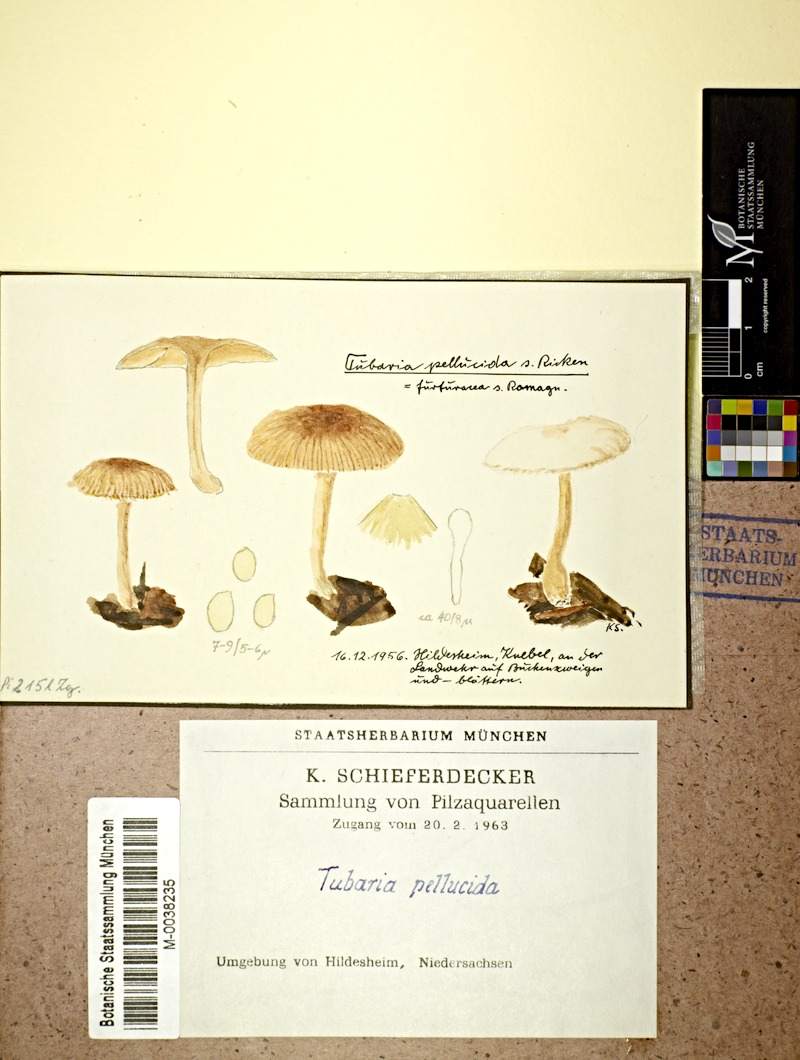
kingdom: Plantae
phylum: Tracheophyta
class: Magnoliopsida
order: Fagales
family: Fagaceae
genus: Fagus
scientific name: Fagus sylvatica
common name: Beech
